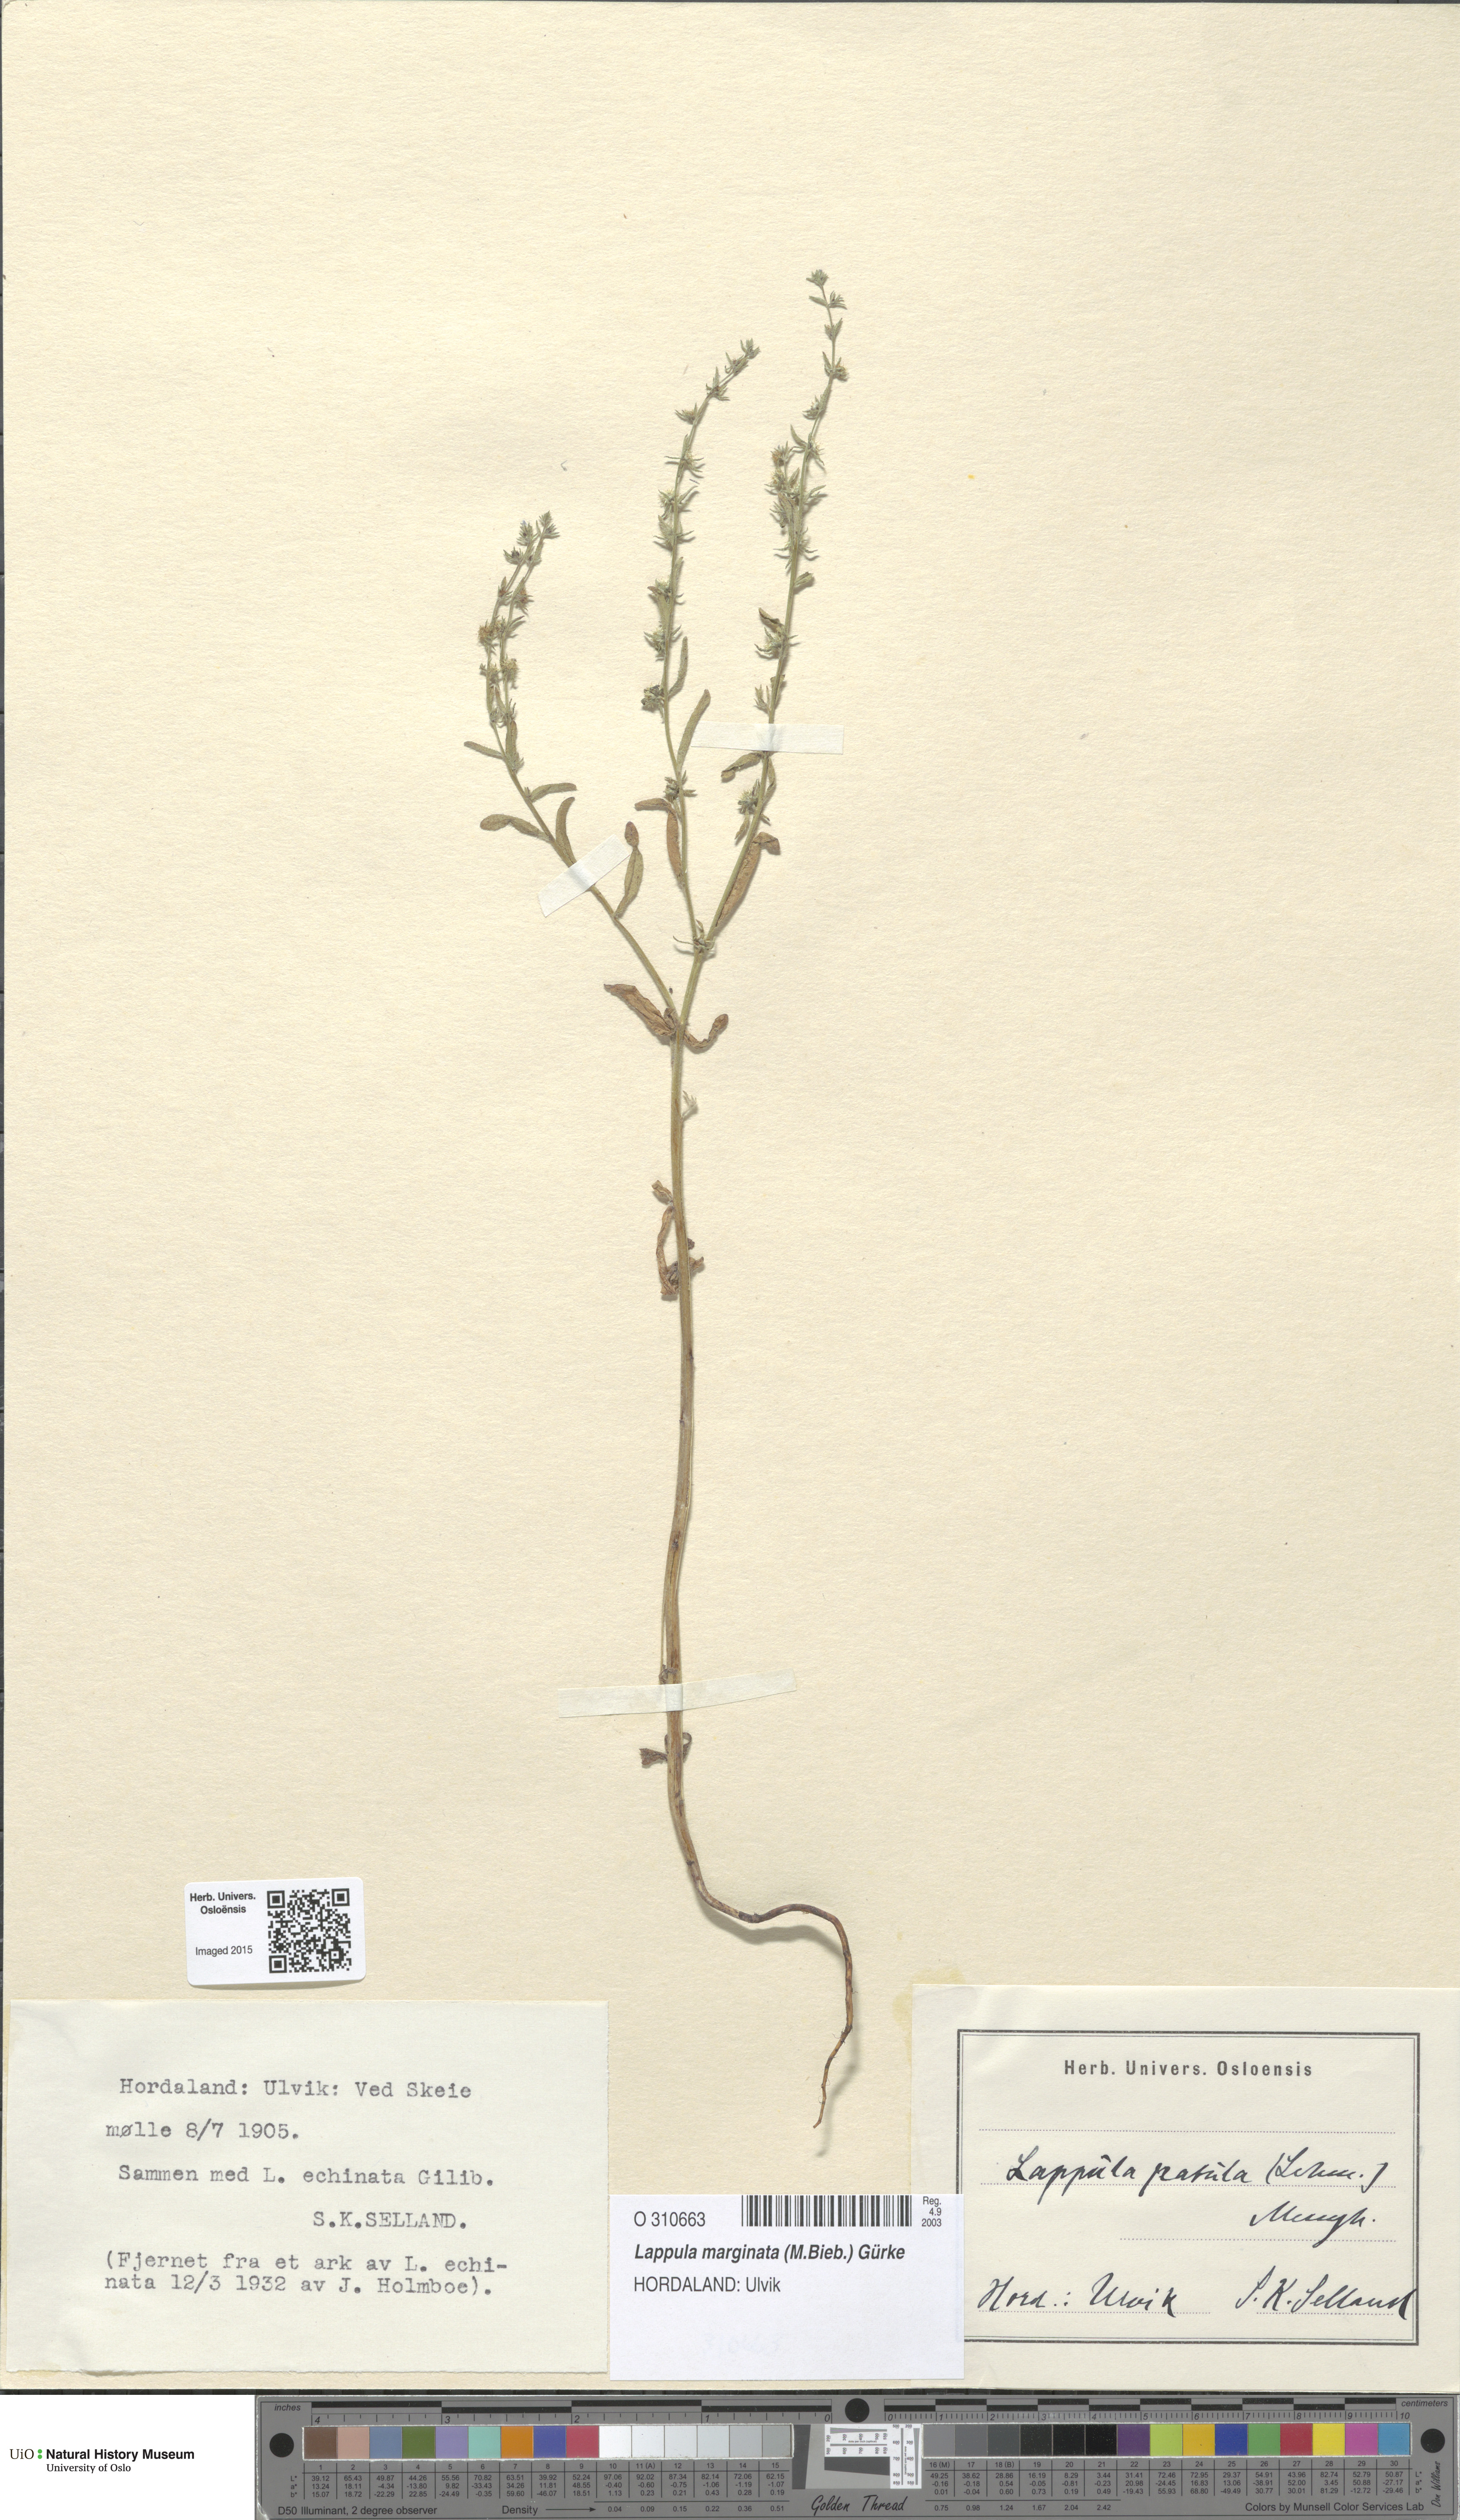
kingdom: Plantae
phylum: Tracheophyta
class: Magnoliopsida
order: Boraginales
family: Boraginaceae
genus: Lappula
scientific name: Lappula patula
